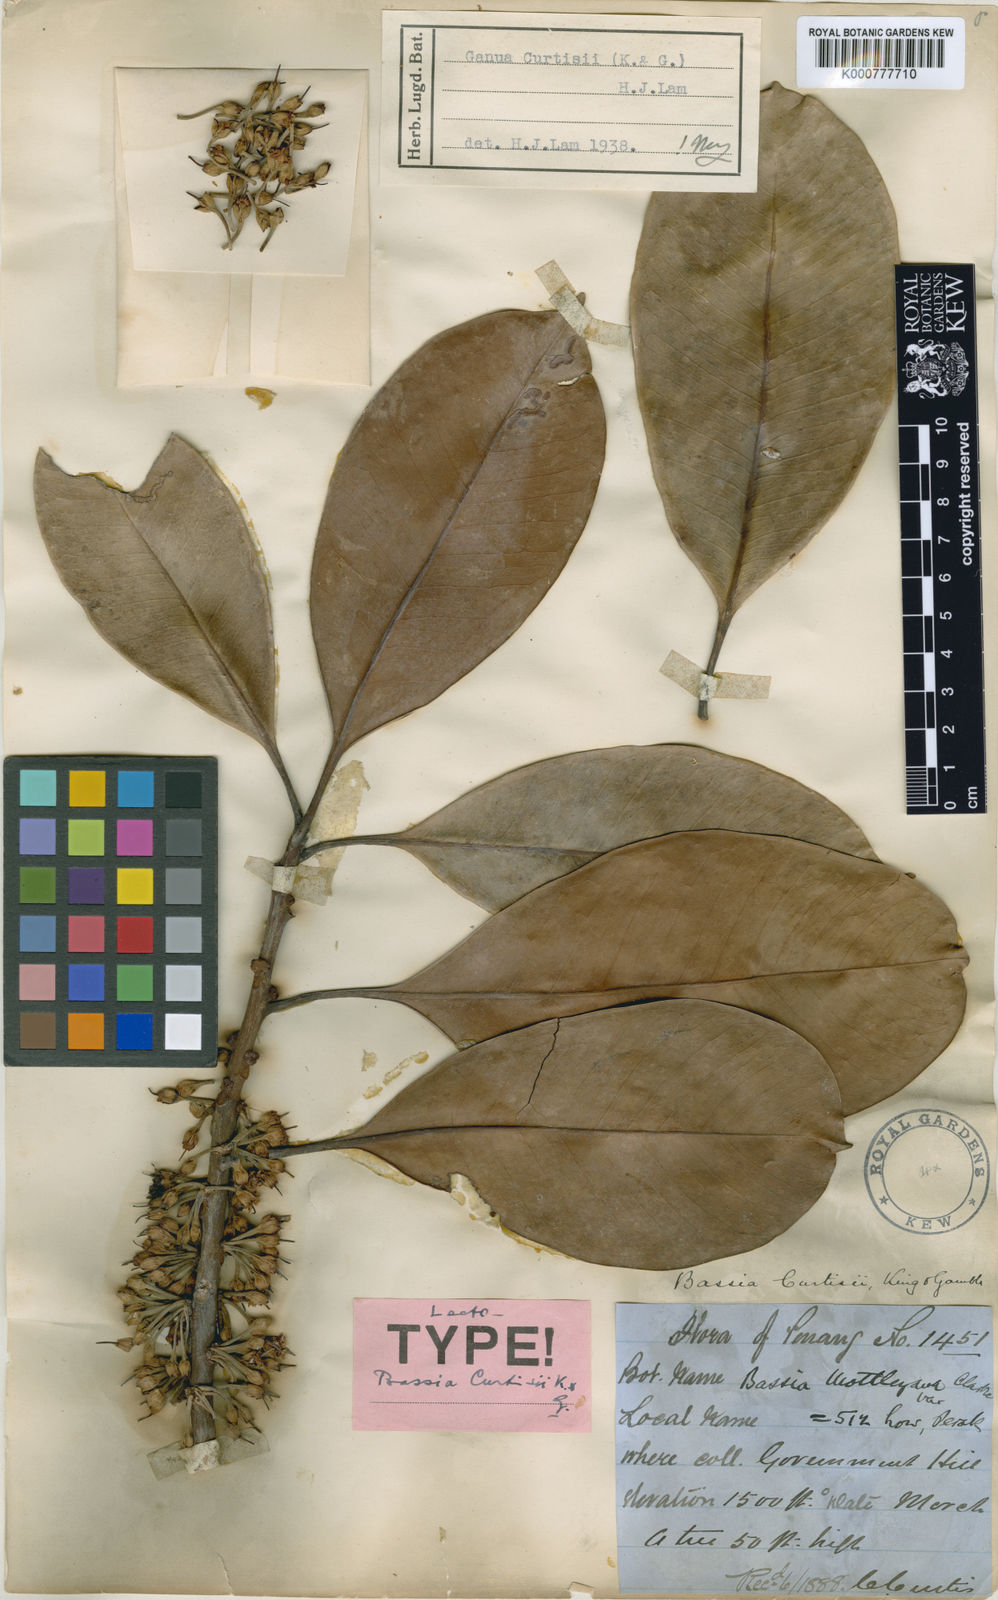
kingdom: Plantae
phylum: Tracheophyta
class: Magnoliopsida
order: Ericales
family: Sapotaceae
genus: Madhuca
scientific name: Madhuca curtisii
